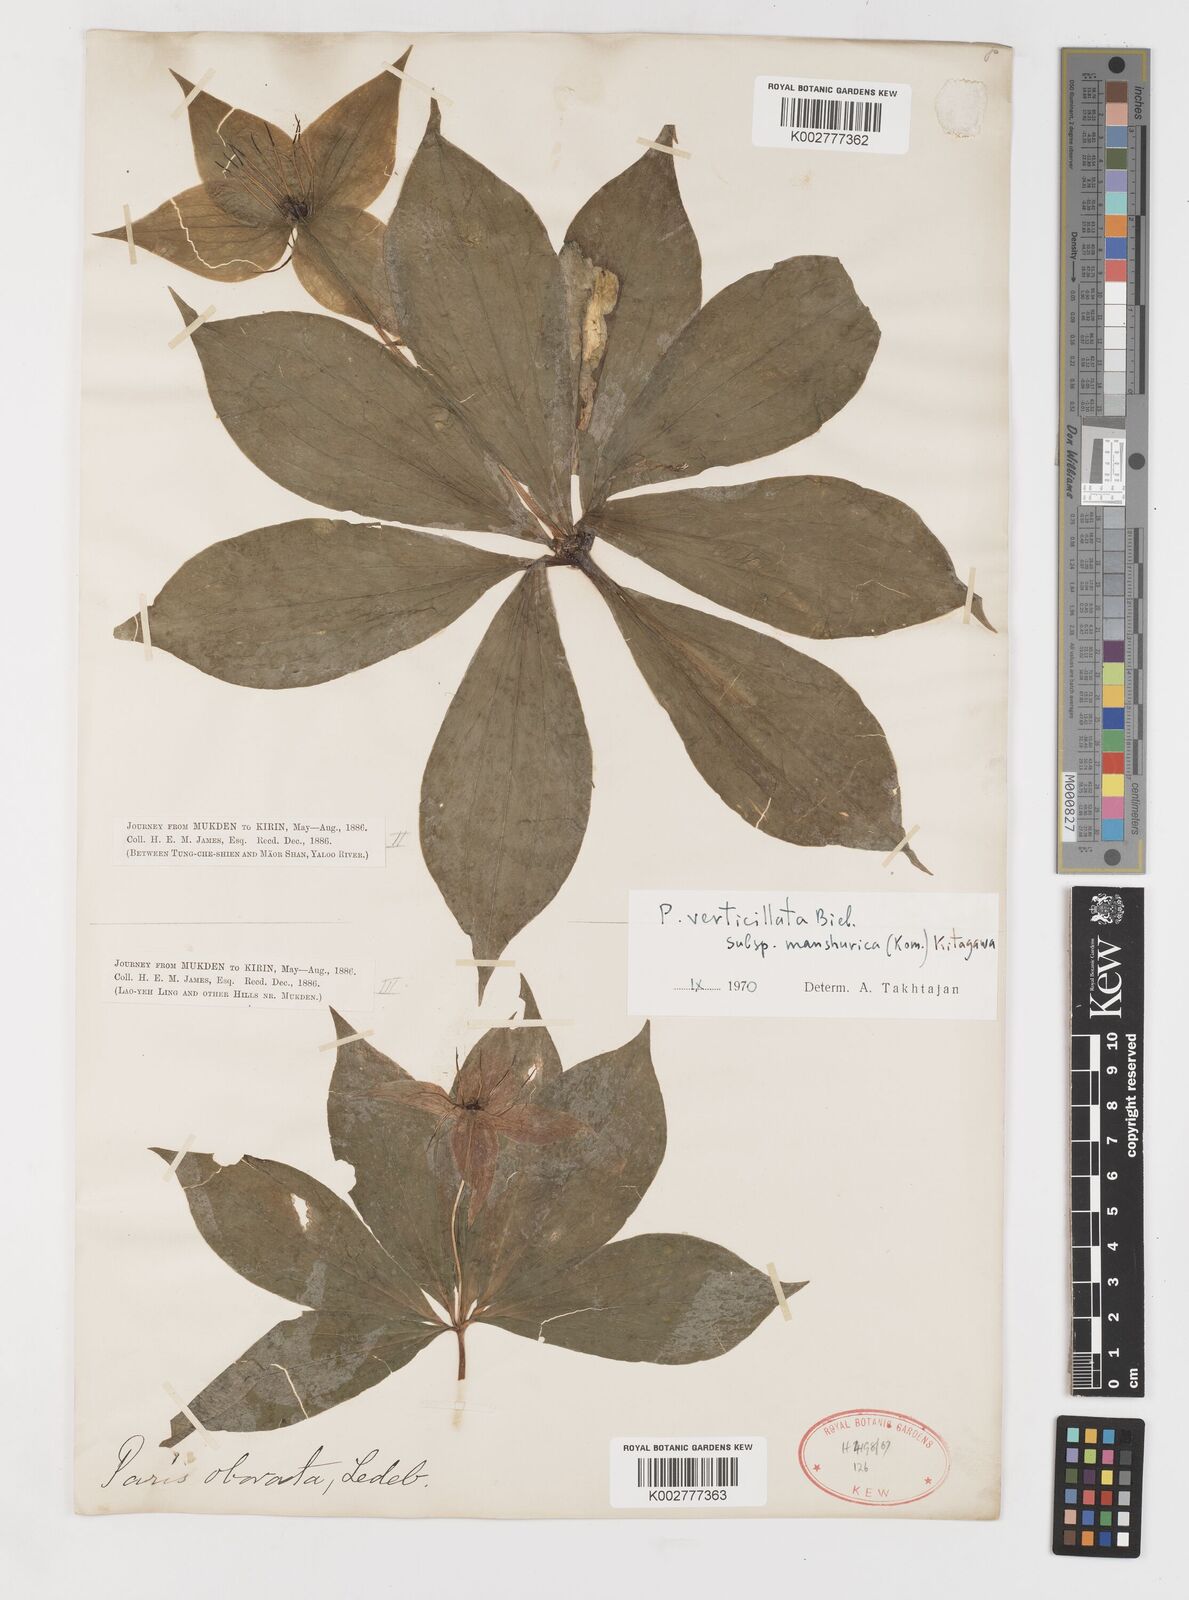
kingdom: Plantae
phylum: Tracheophyta
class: Liliopsida
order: Liliales
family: Melanthiaceae
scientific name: Melanthiaceae
